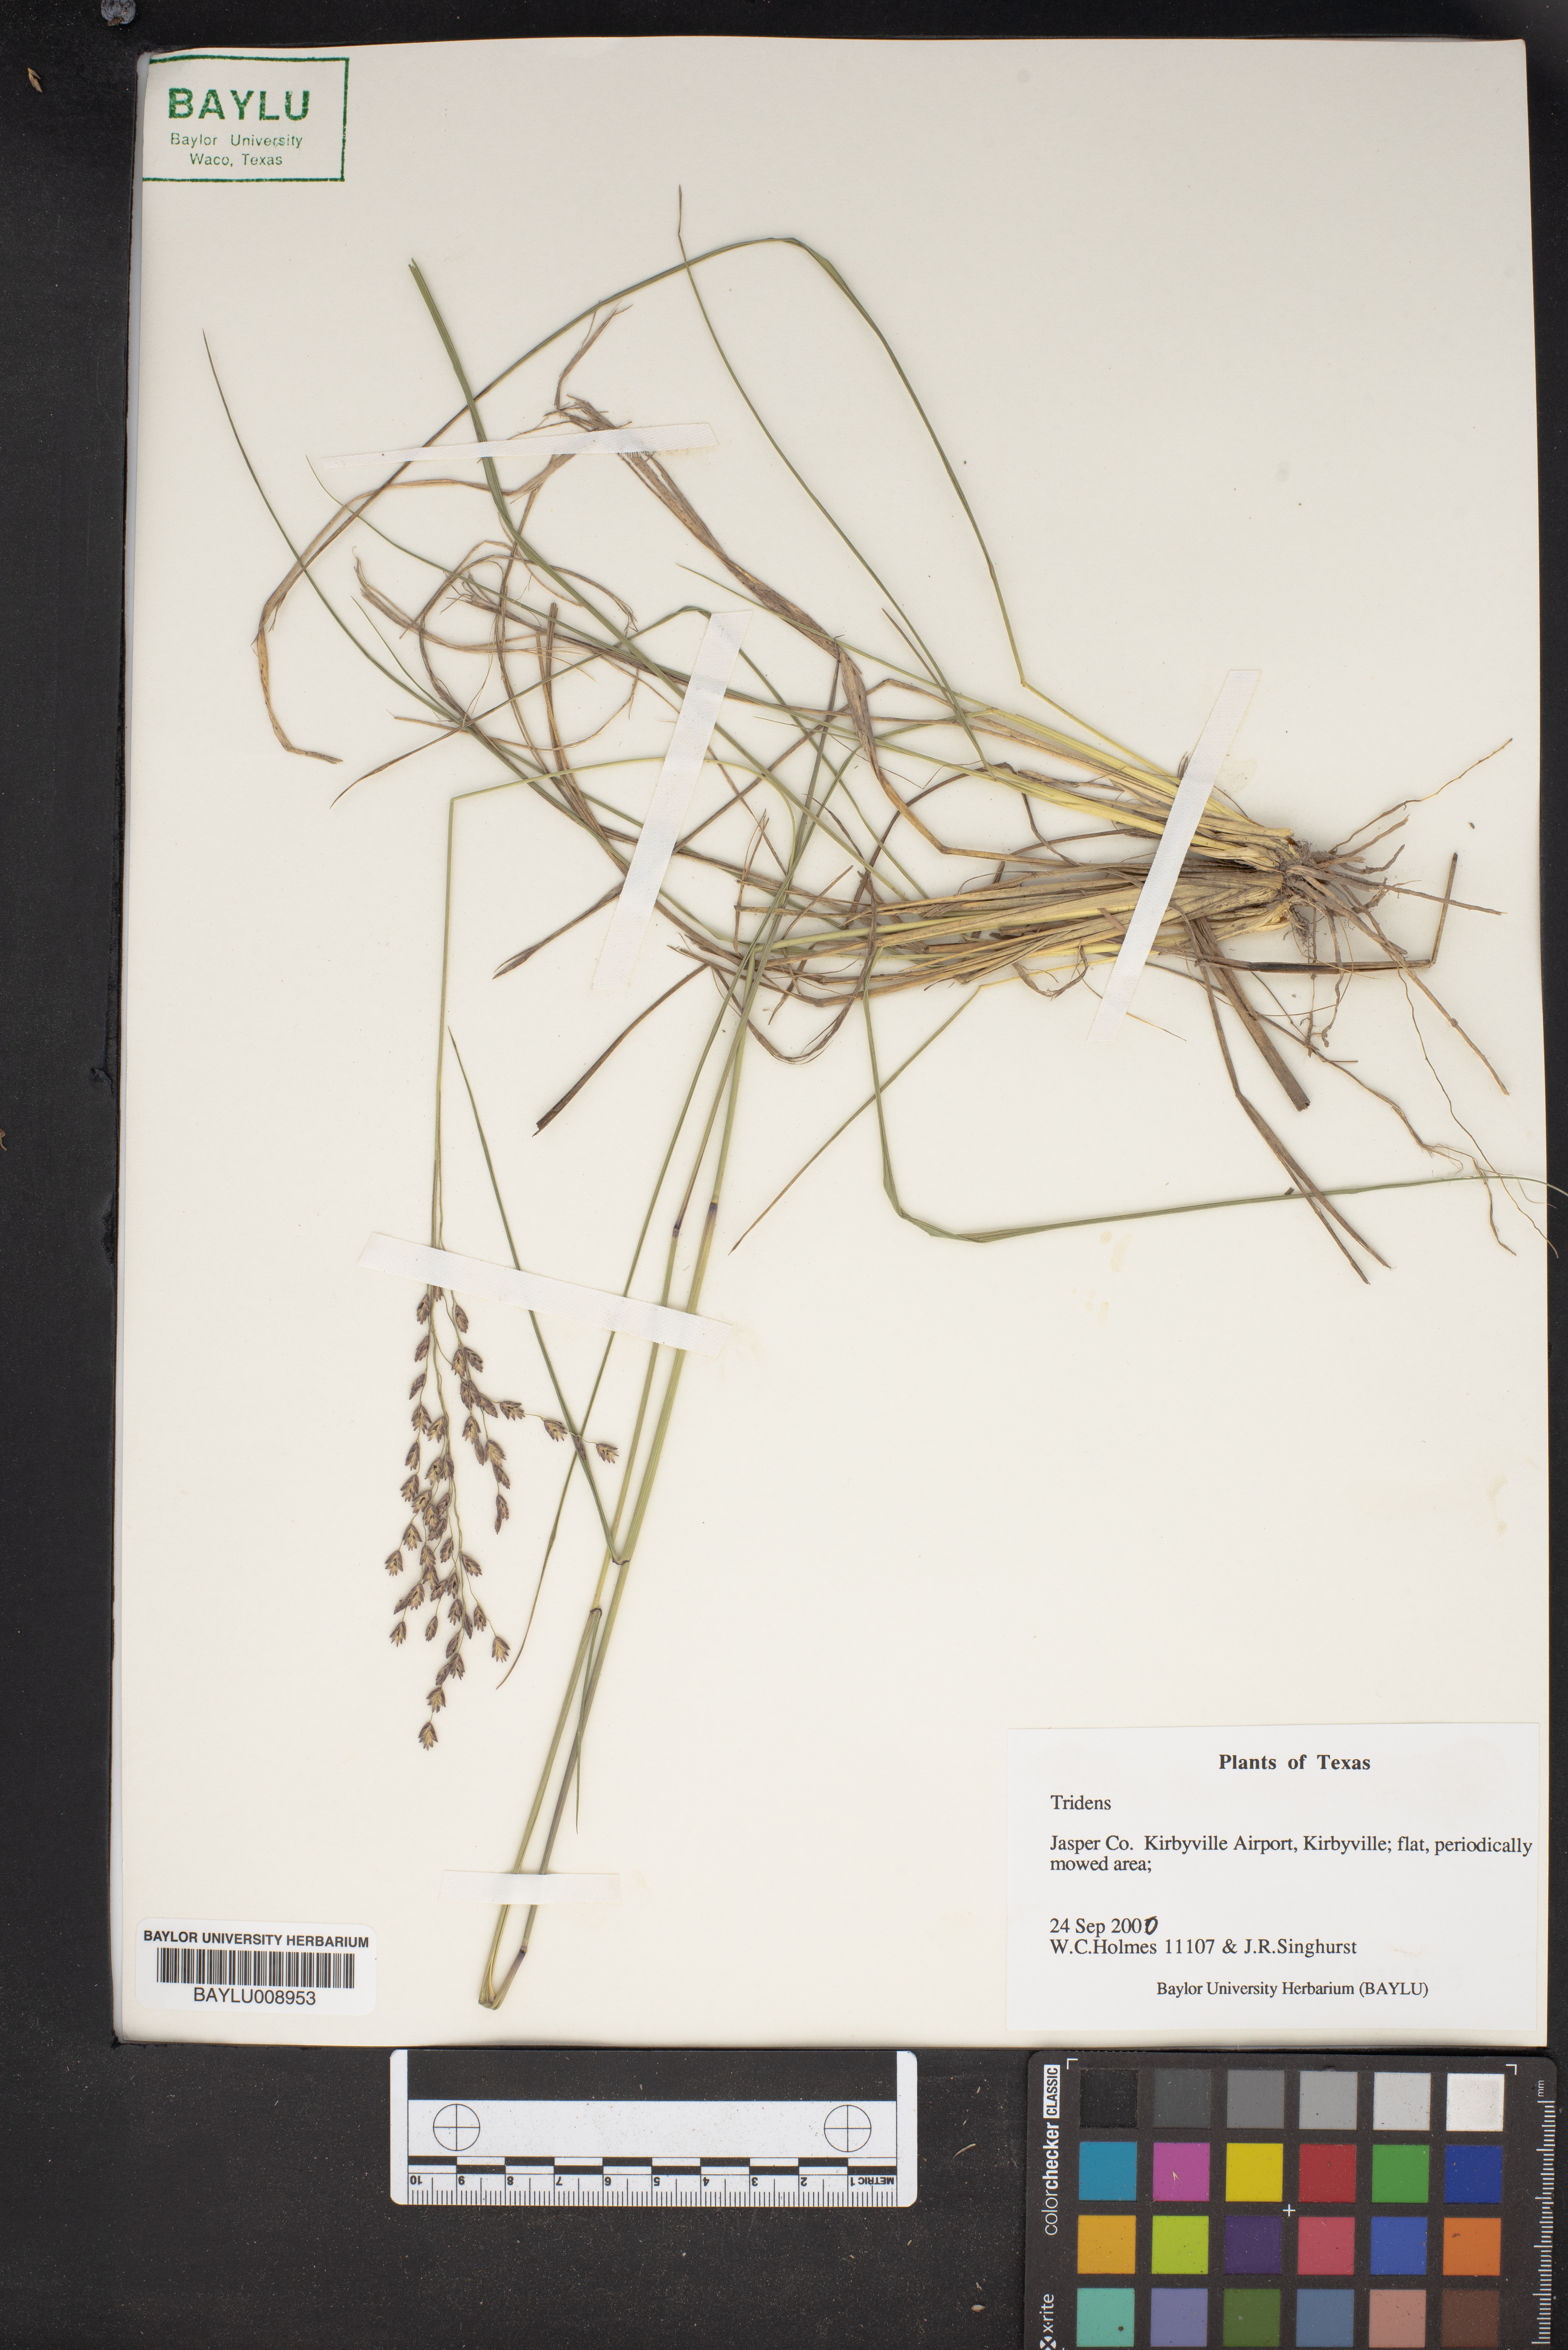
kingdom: Plantae
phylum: Tracheophyta
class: Liliopsida
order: Poales
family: Poaceae
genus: Tridens
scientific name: Tridens
